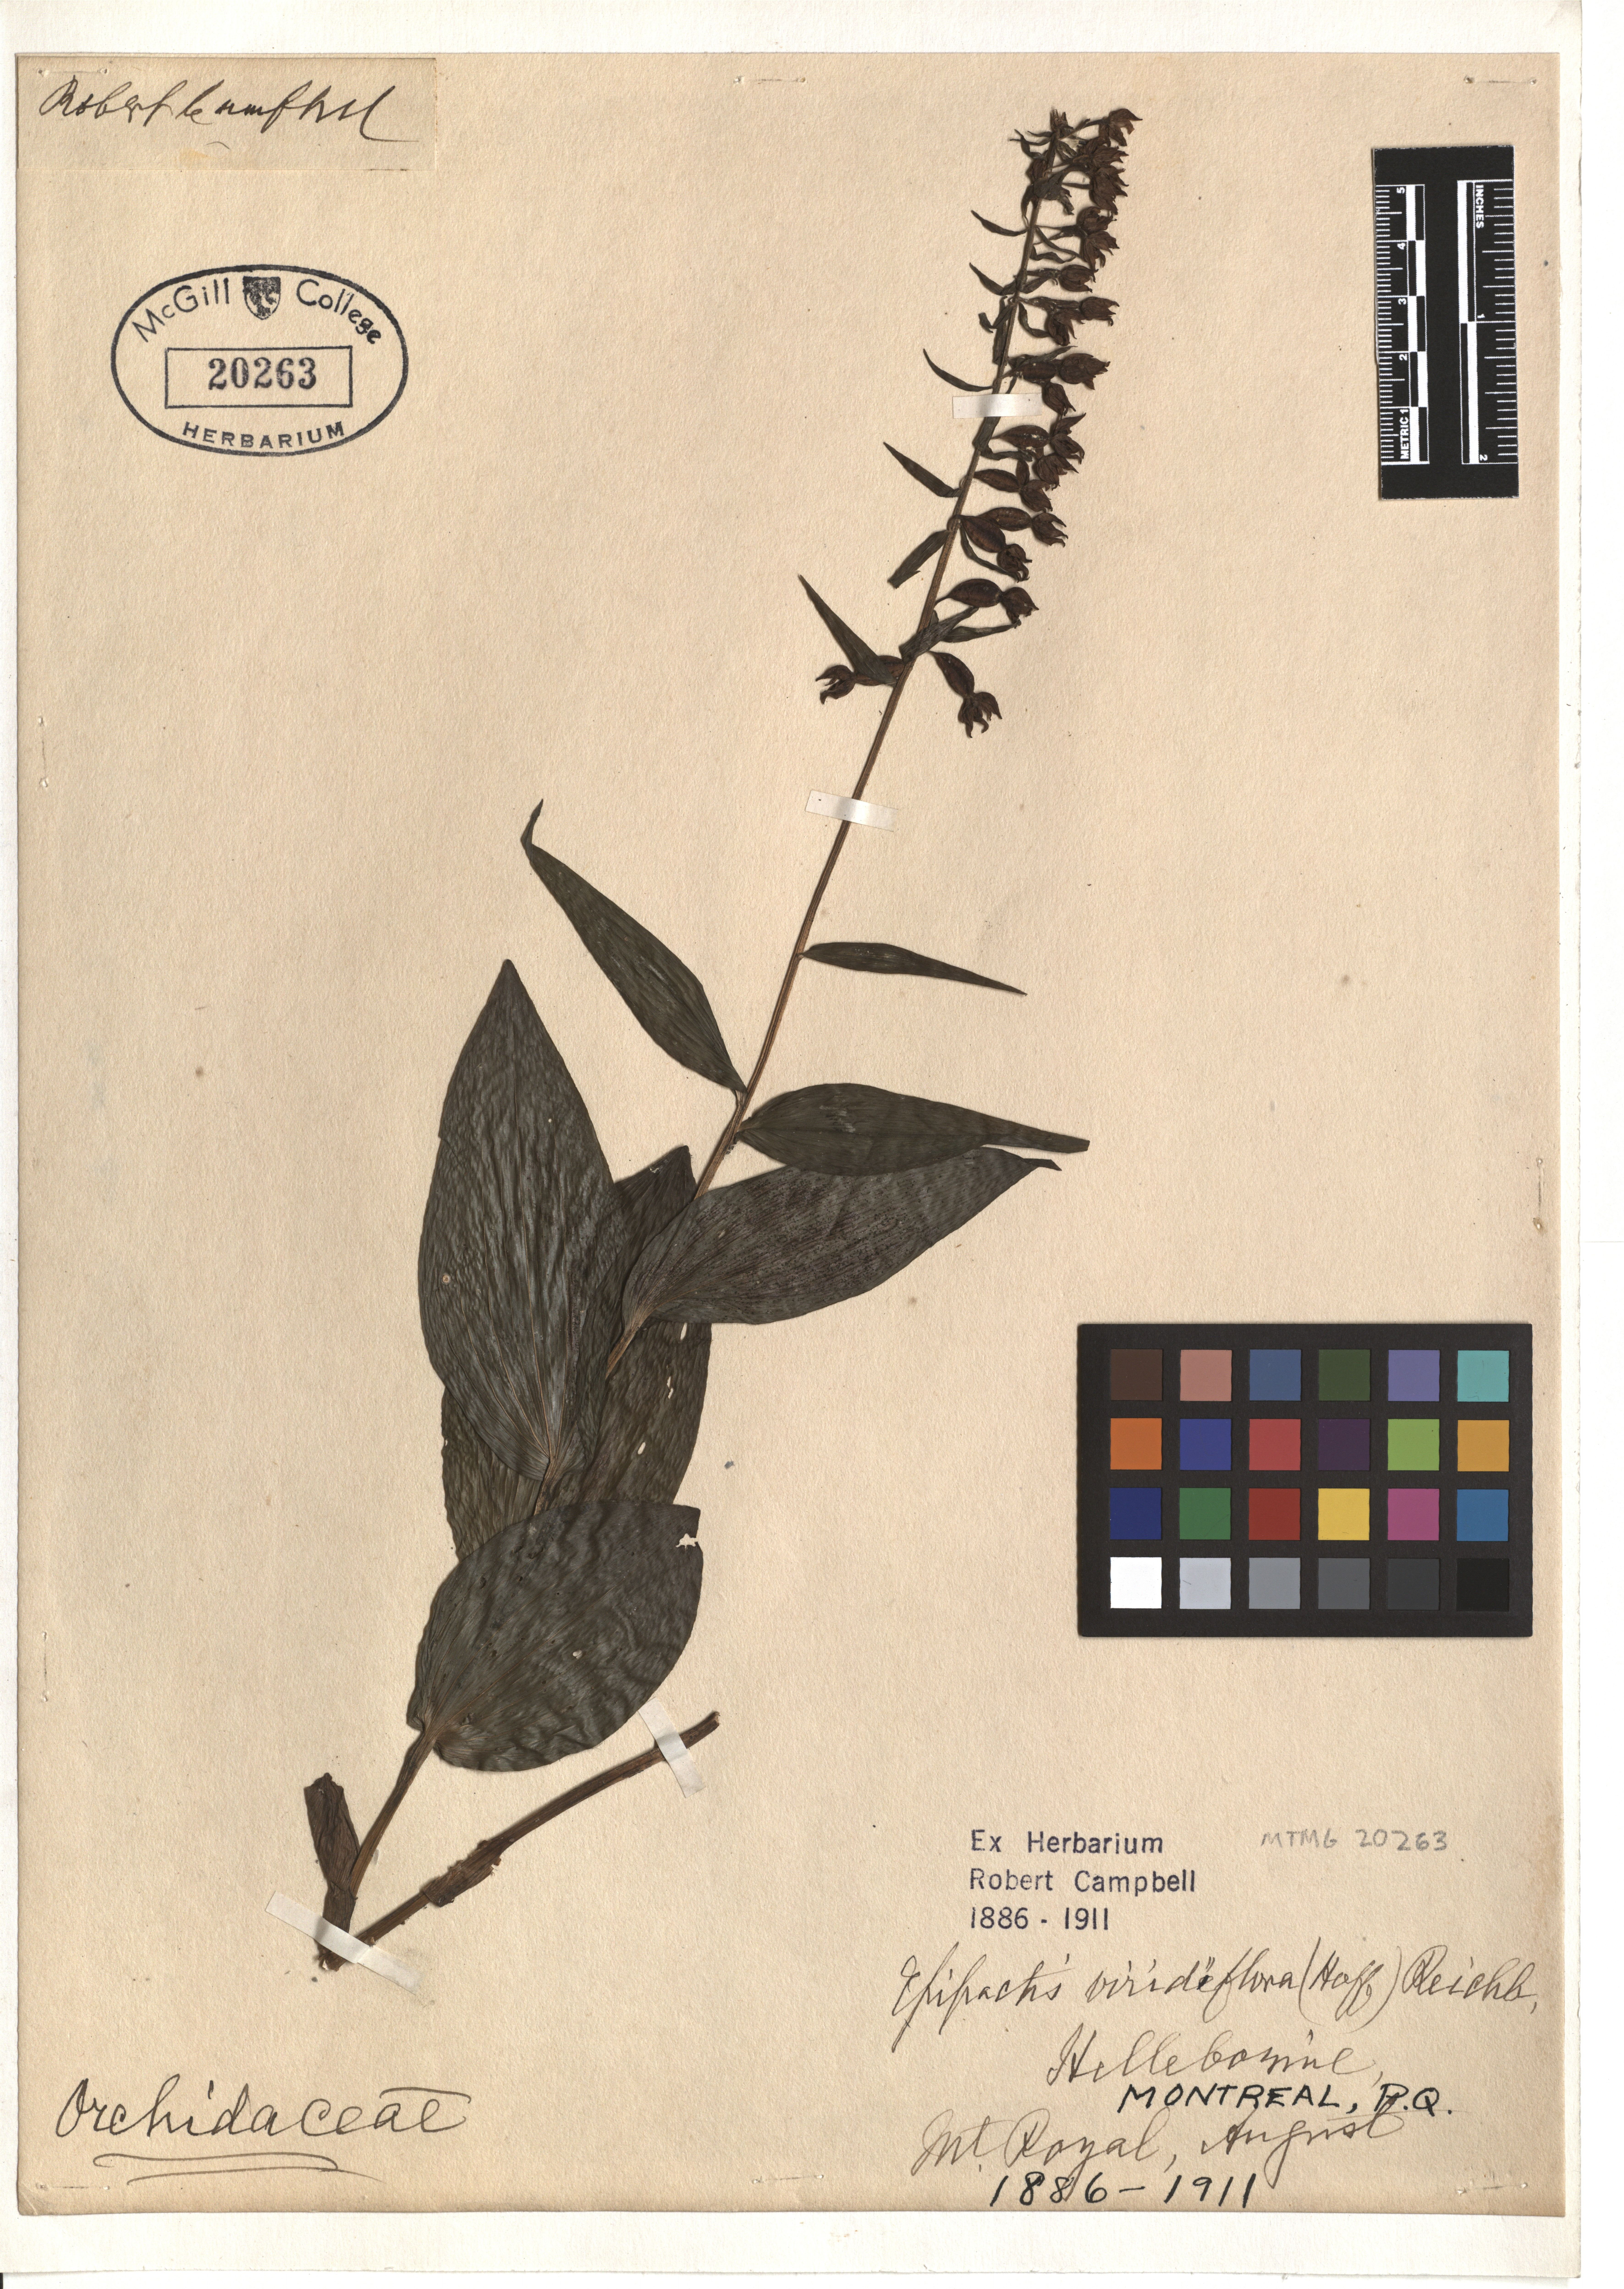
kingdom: Plantae
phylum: Tracheophyta
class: Liliopsida
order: Asparagales
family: Orchidaceae
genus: Epipactis
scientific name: Epipactis purpurata
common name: Violet helleborine
